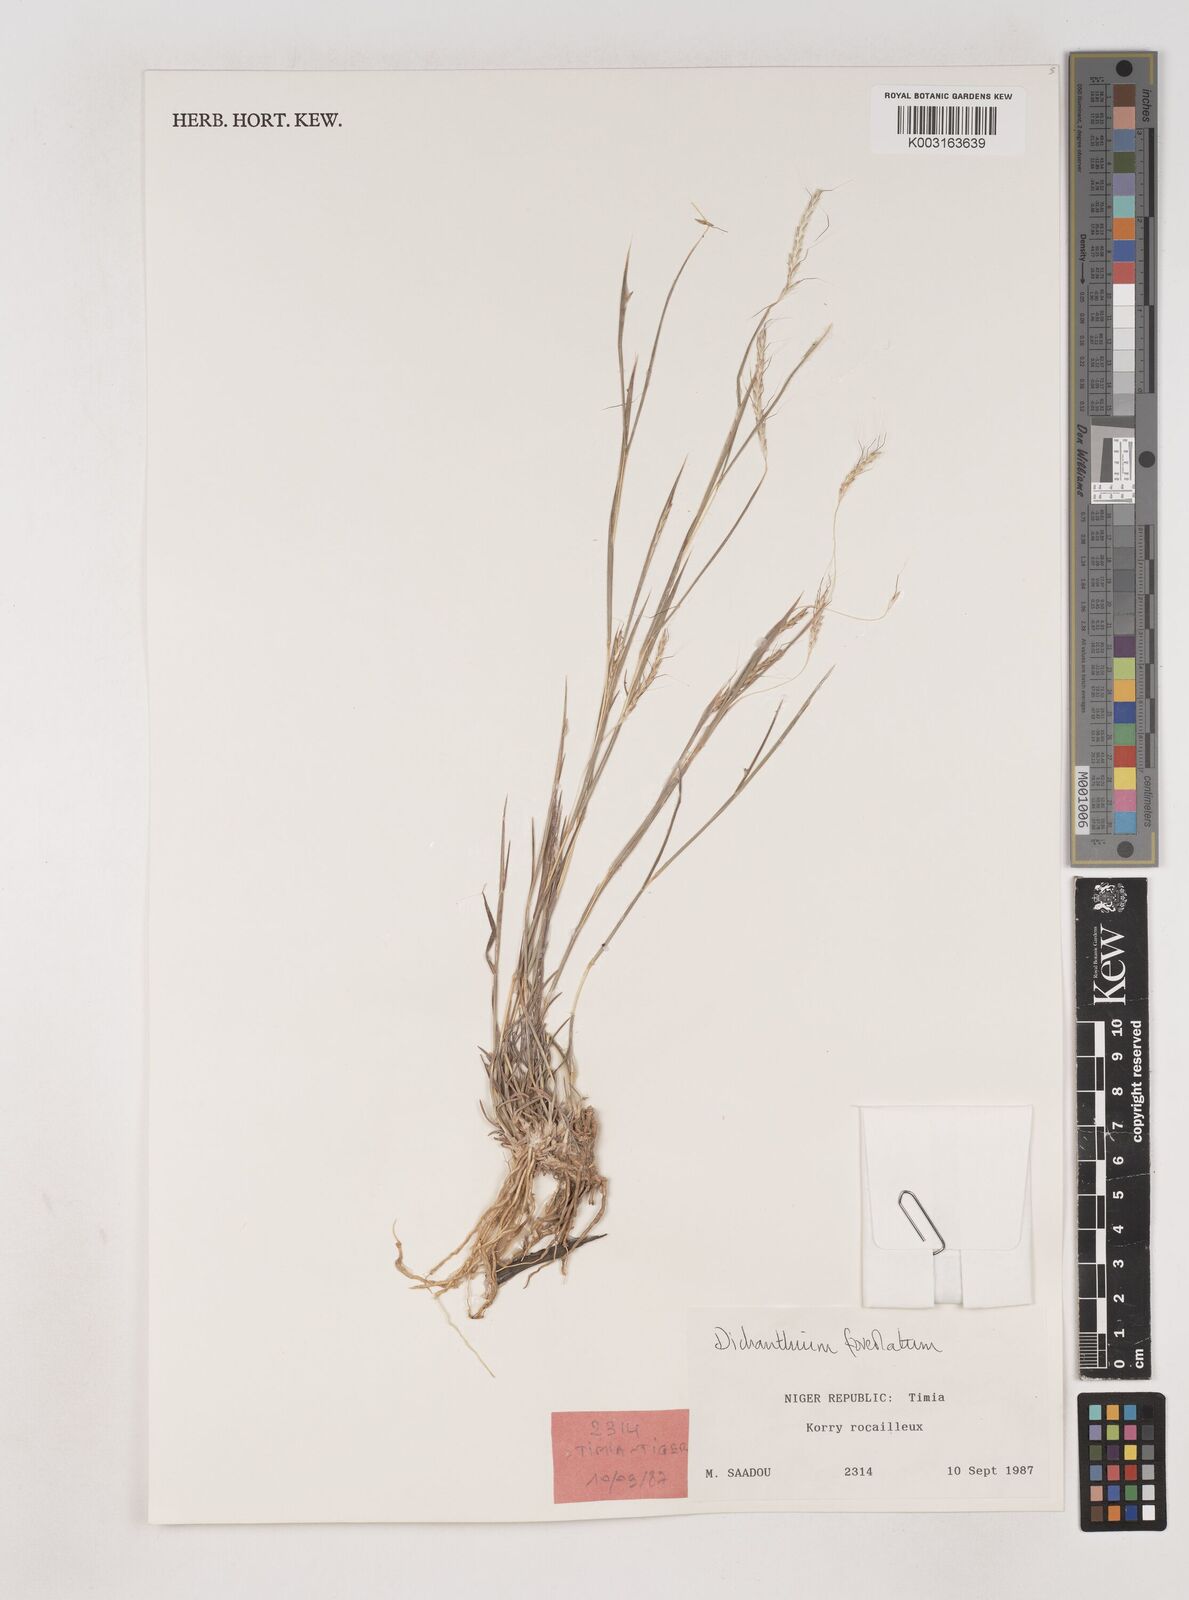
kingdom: Plantae
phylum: Tracheophyta
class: Liliopsida
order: Poales
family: Poaceae
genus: Dichanthium
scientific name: Dichanthium foveolatum
